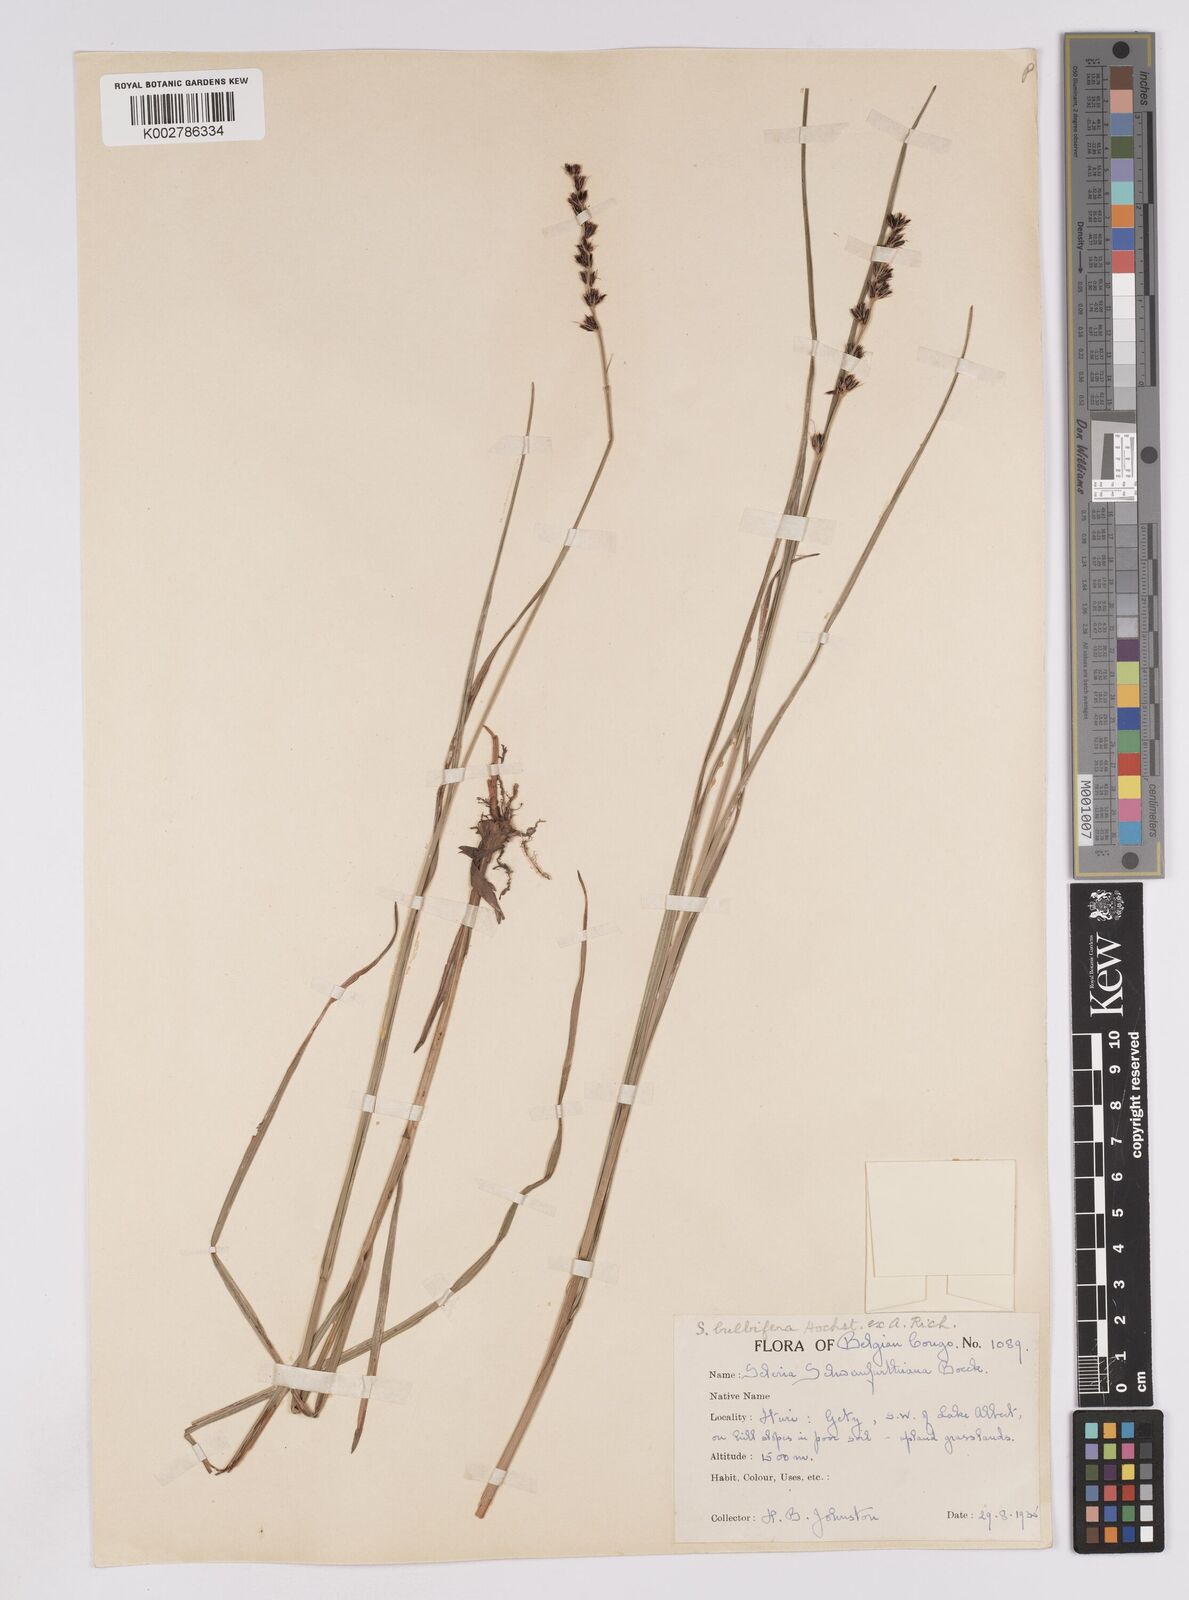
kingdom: Plantae
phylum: Tracheophyta
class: Liliopsida
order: Poales
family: Cyperaceae
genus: Scleria
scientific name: Scleria bulbifera
